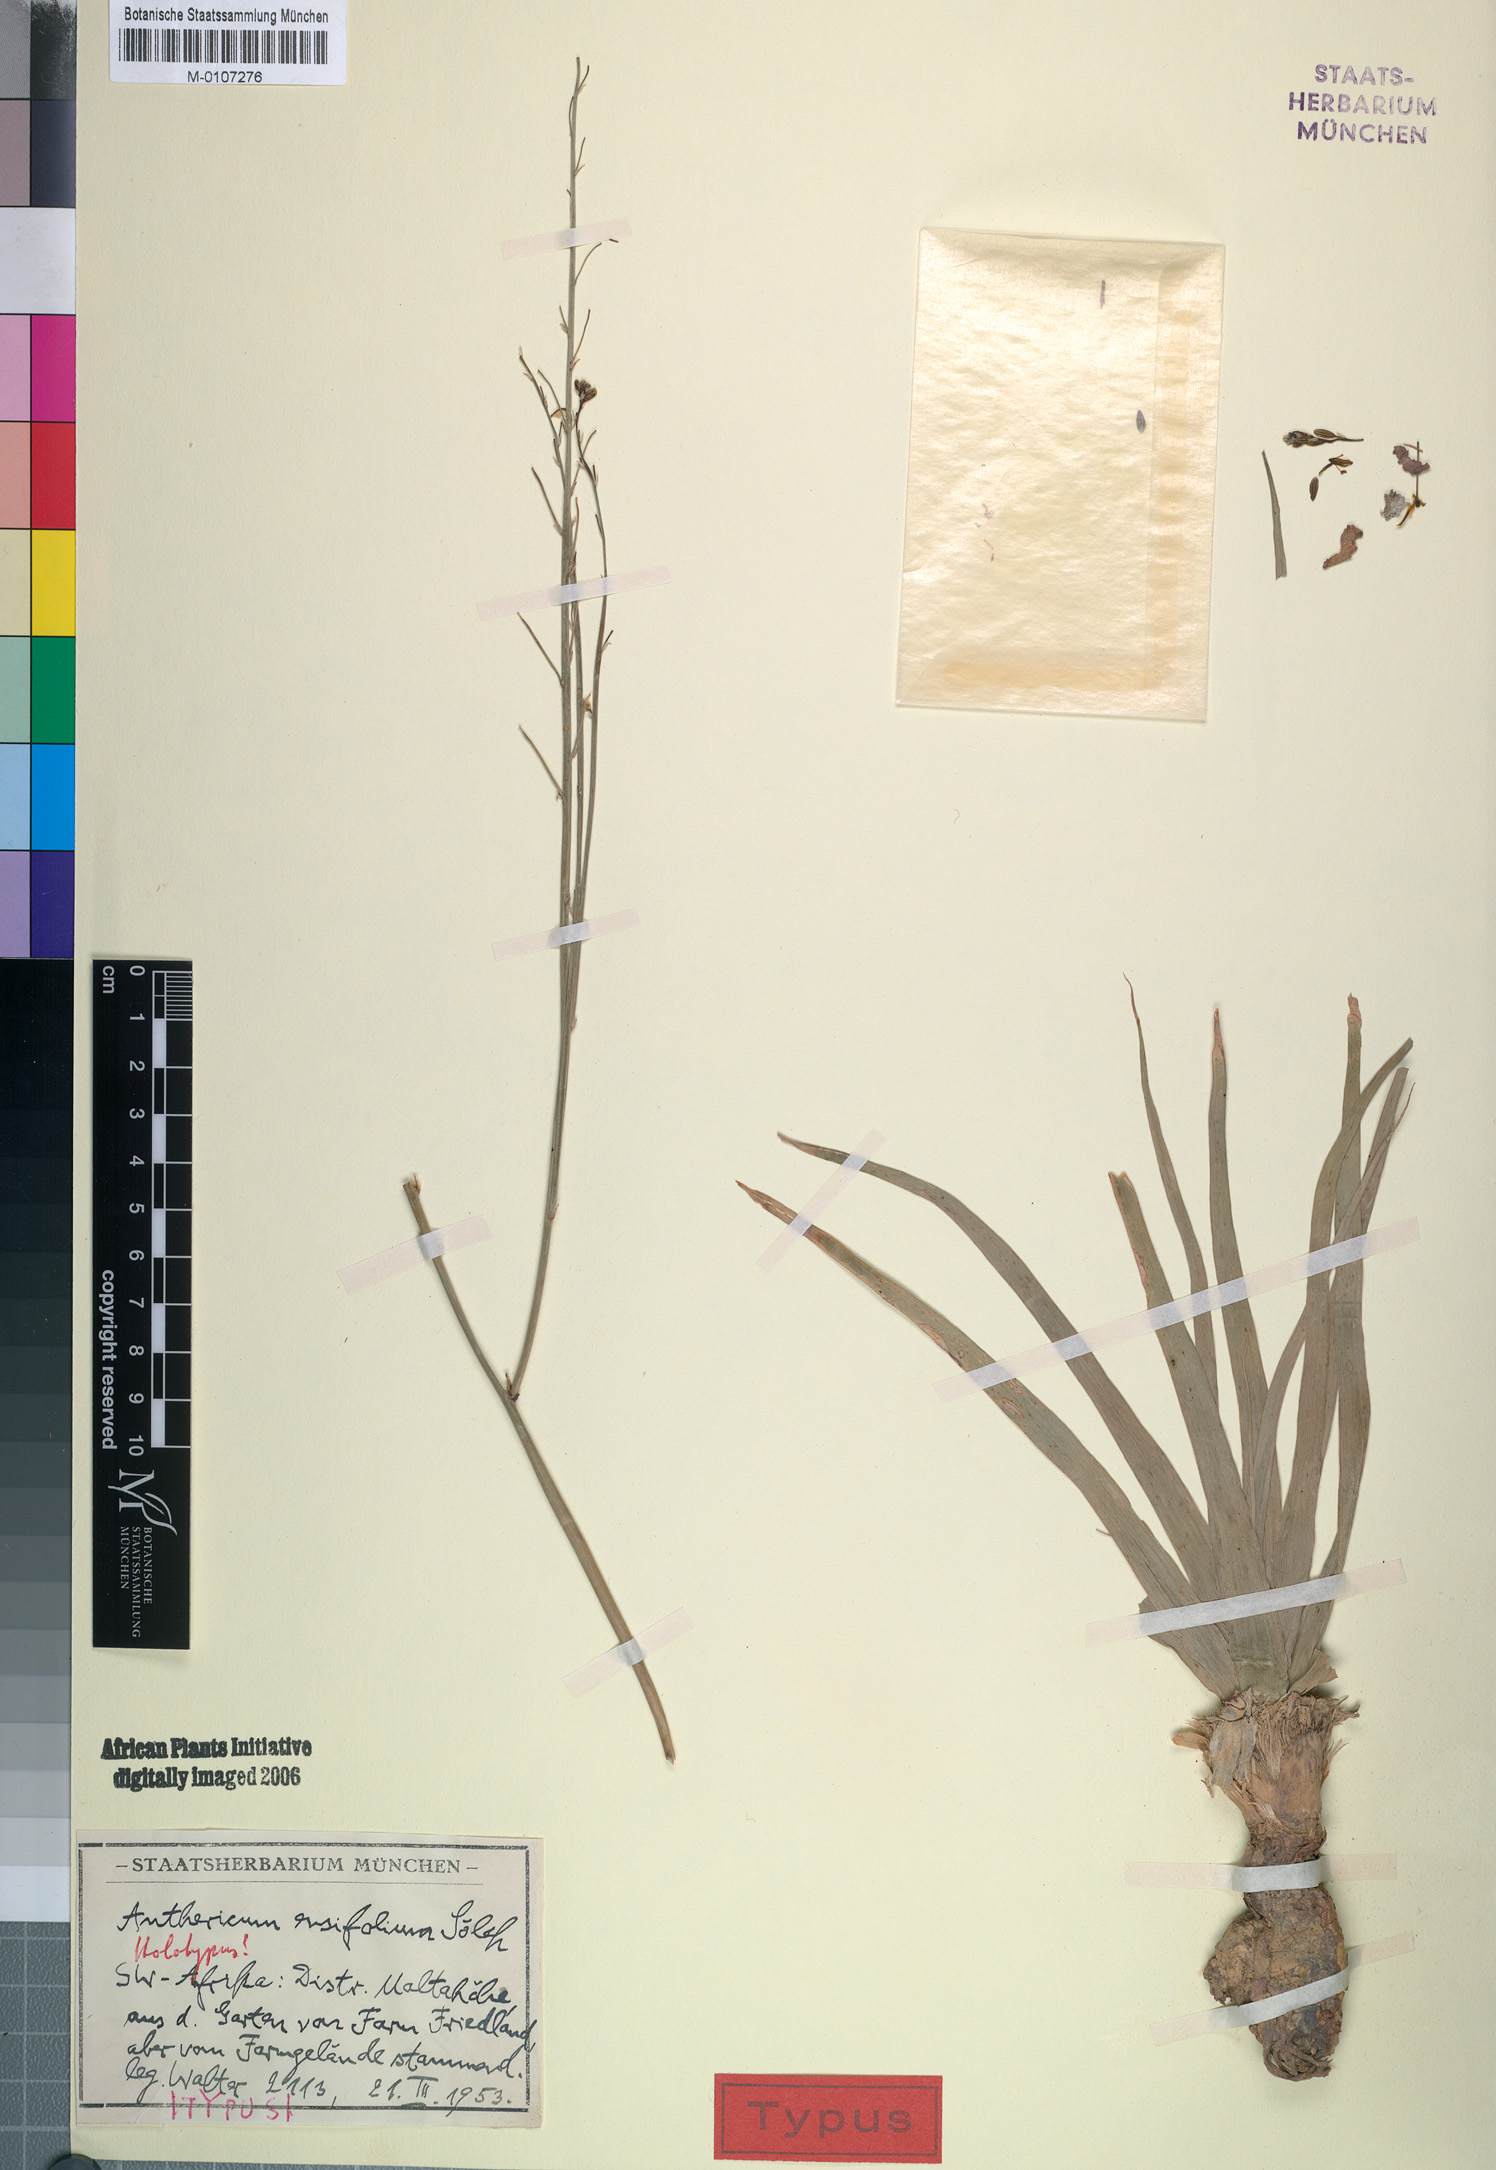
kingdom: Plantae
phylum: Tracheophyta
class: Liliopsida
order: Asparagales
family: Asphodelaceae
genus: Trachyandra
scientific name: Trachyandra ensifolia
